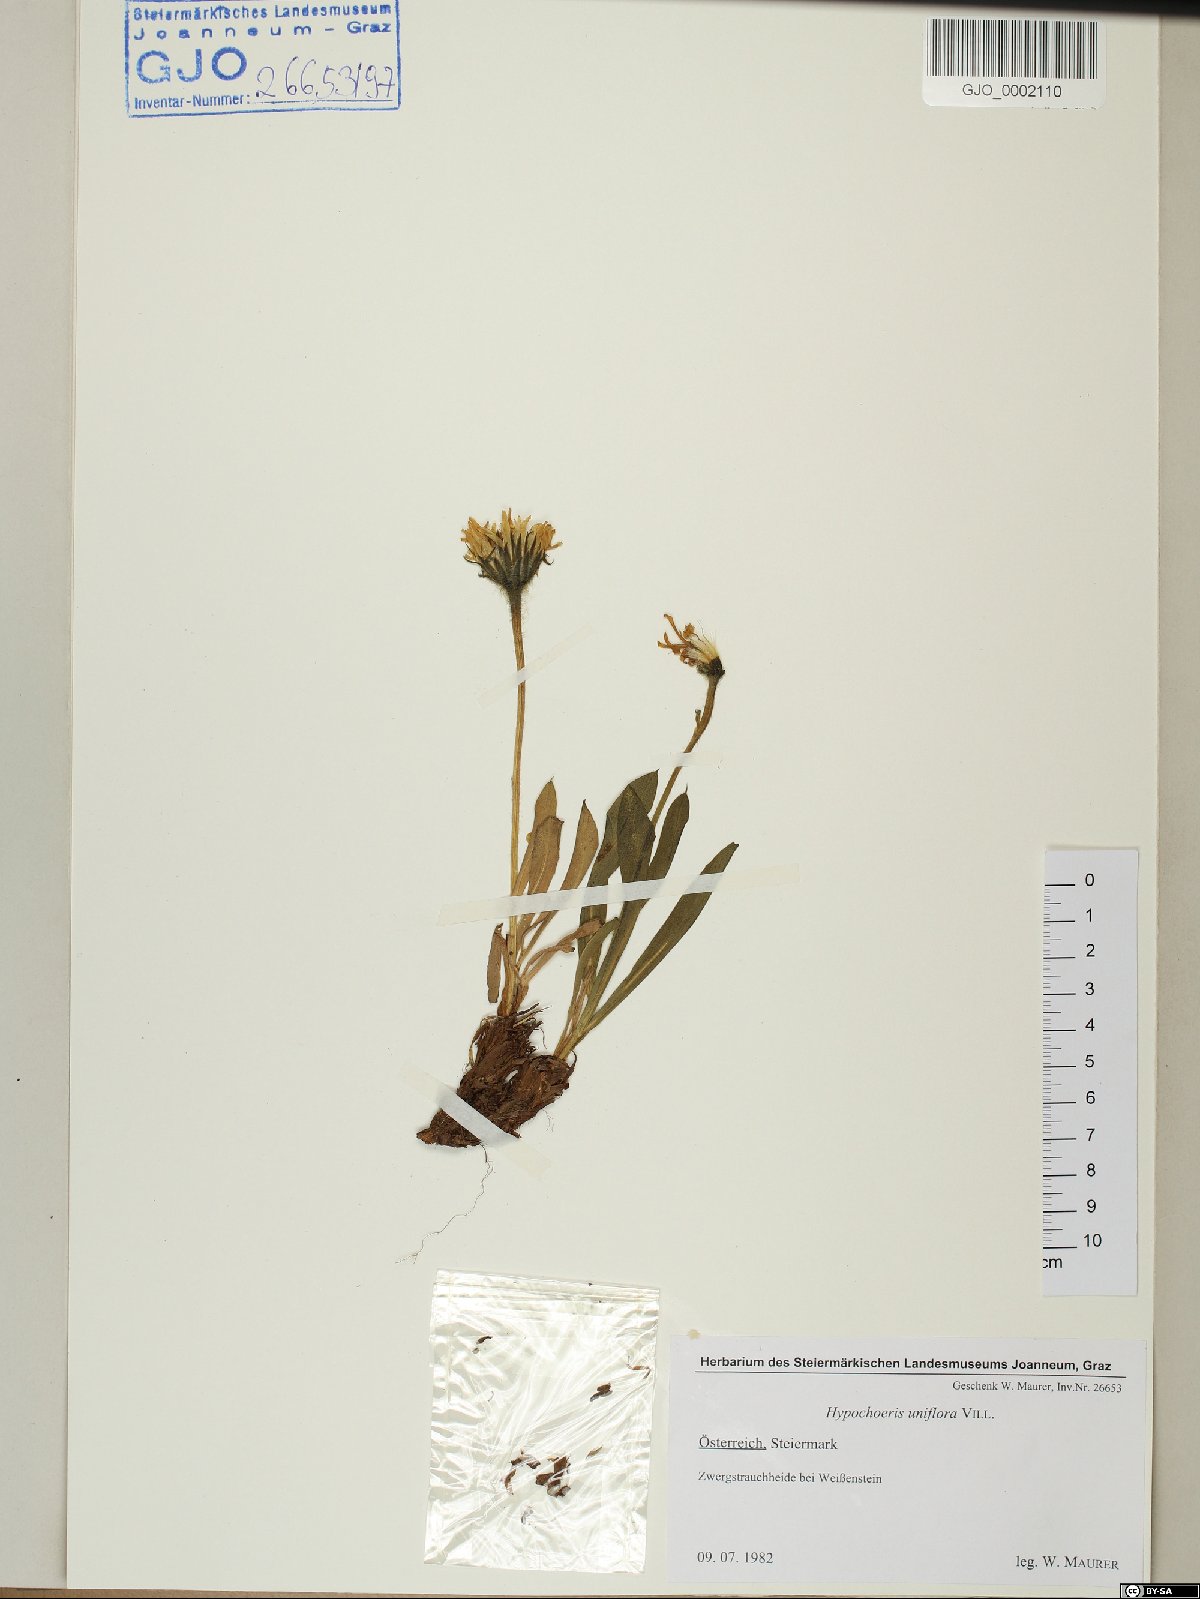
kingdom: Plantae
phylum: Tracheophyta
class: Magnoliopsida
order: Asterales
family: Asteraceae
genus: Trommsdorffia
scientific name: Trommsdorffia uniflora
